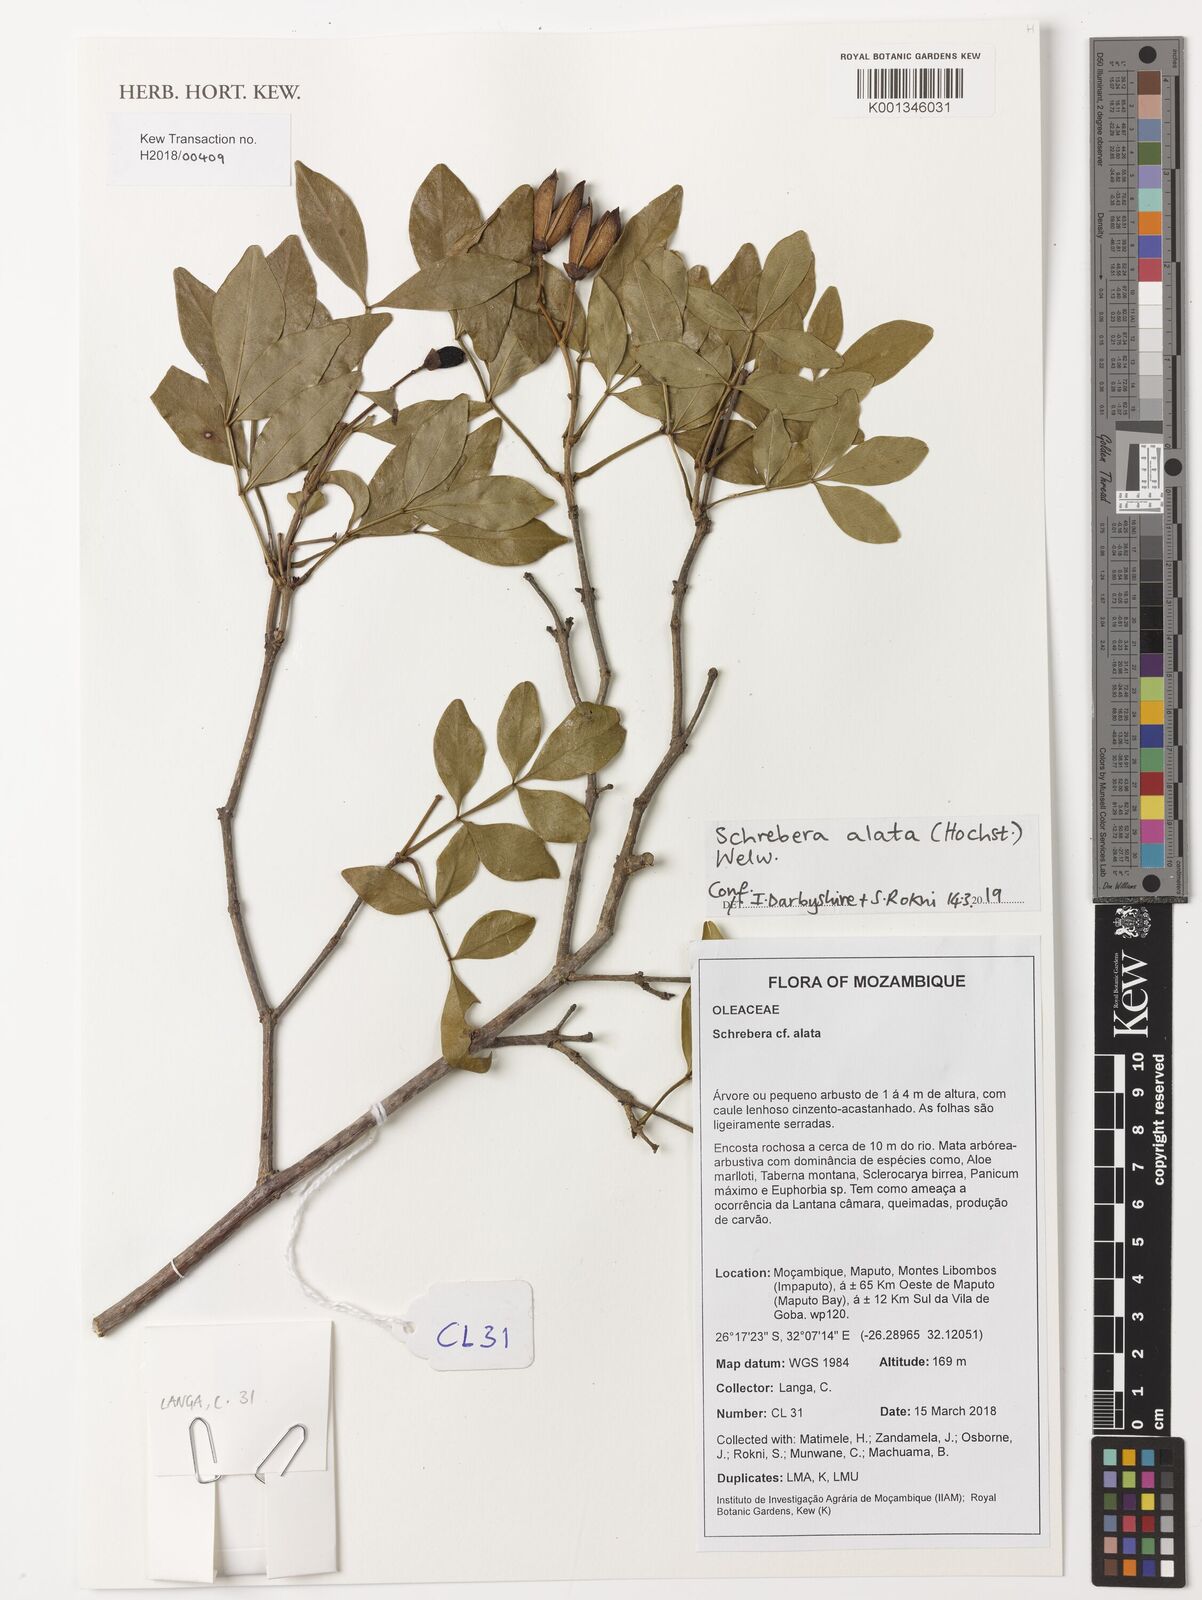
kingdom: Plantae
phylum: Tracheophyta
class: Magnoliopsida
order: Lamiales
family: Oleaceae
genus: Schrebera
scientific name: Schrebera alata
